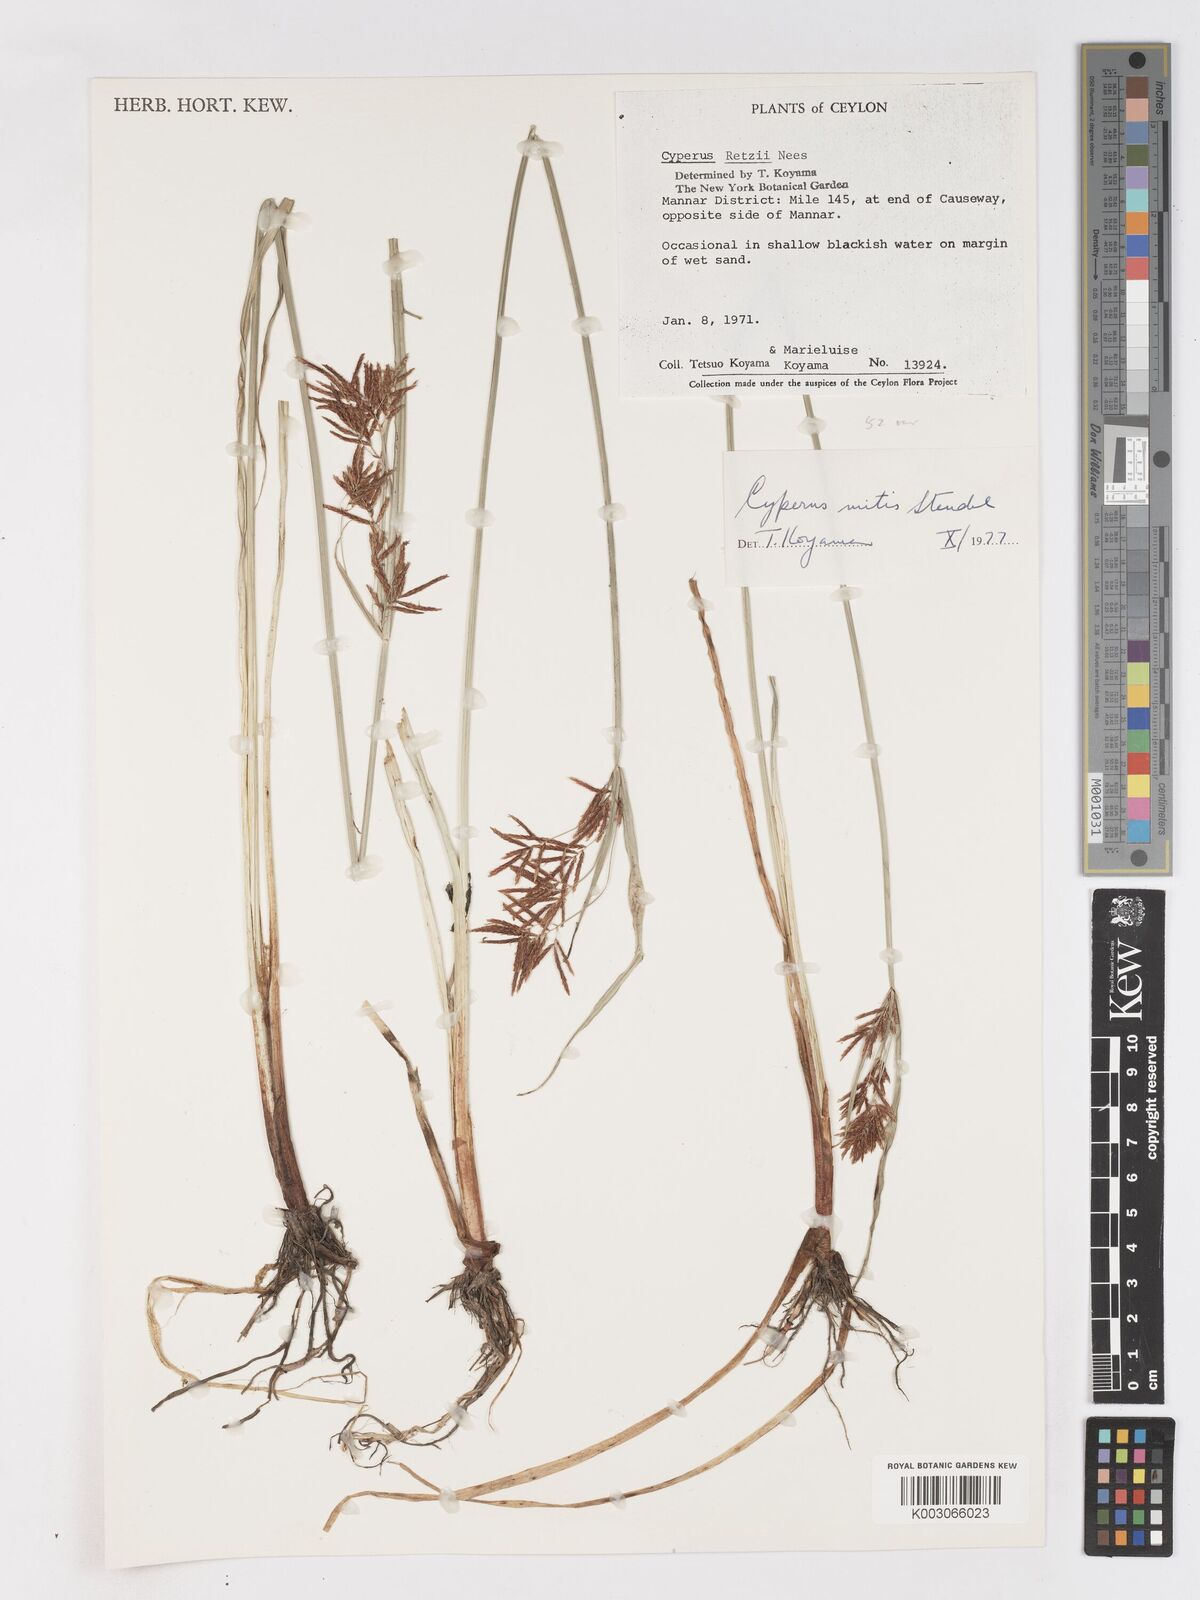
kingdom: Plantae
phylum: Tracheophyta
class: Liliopsida
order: Poales
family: Cyperaceae
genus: Cyperus
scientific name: Cyperus mitis
